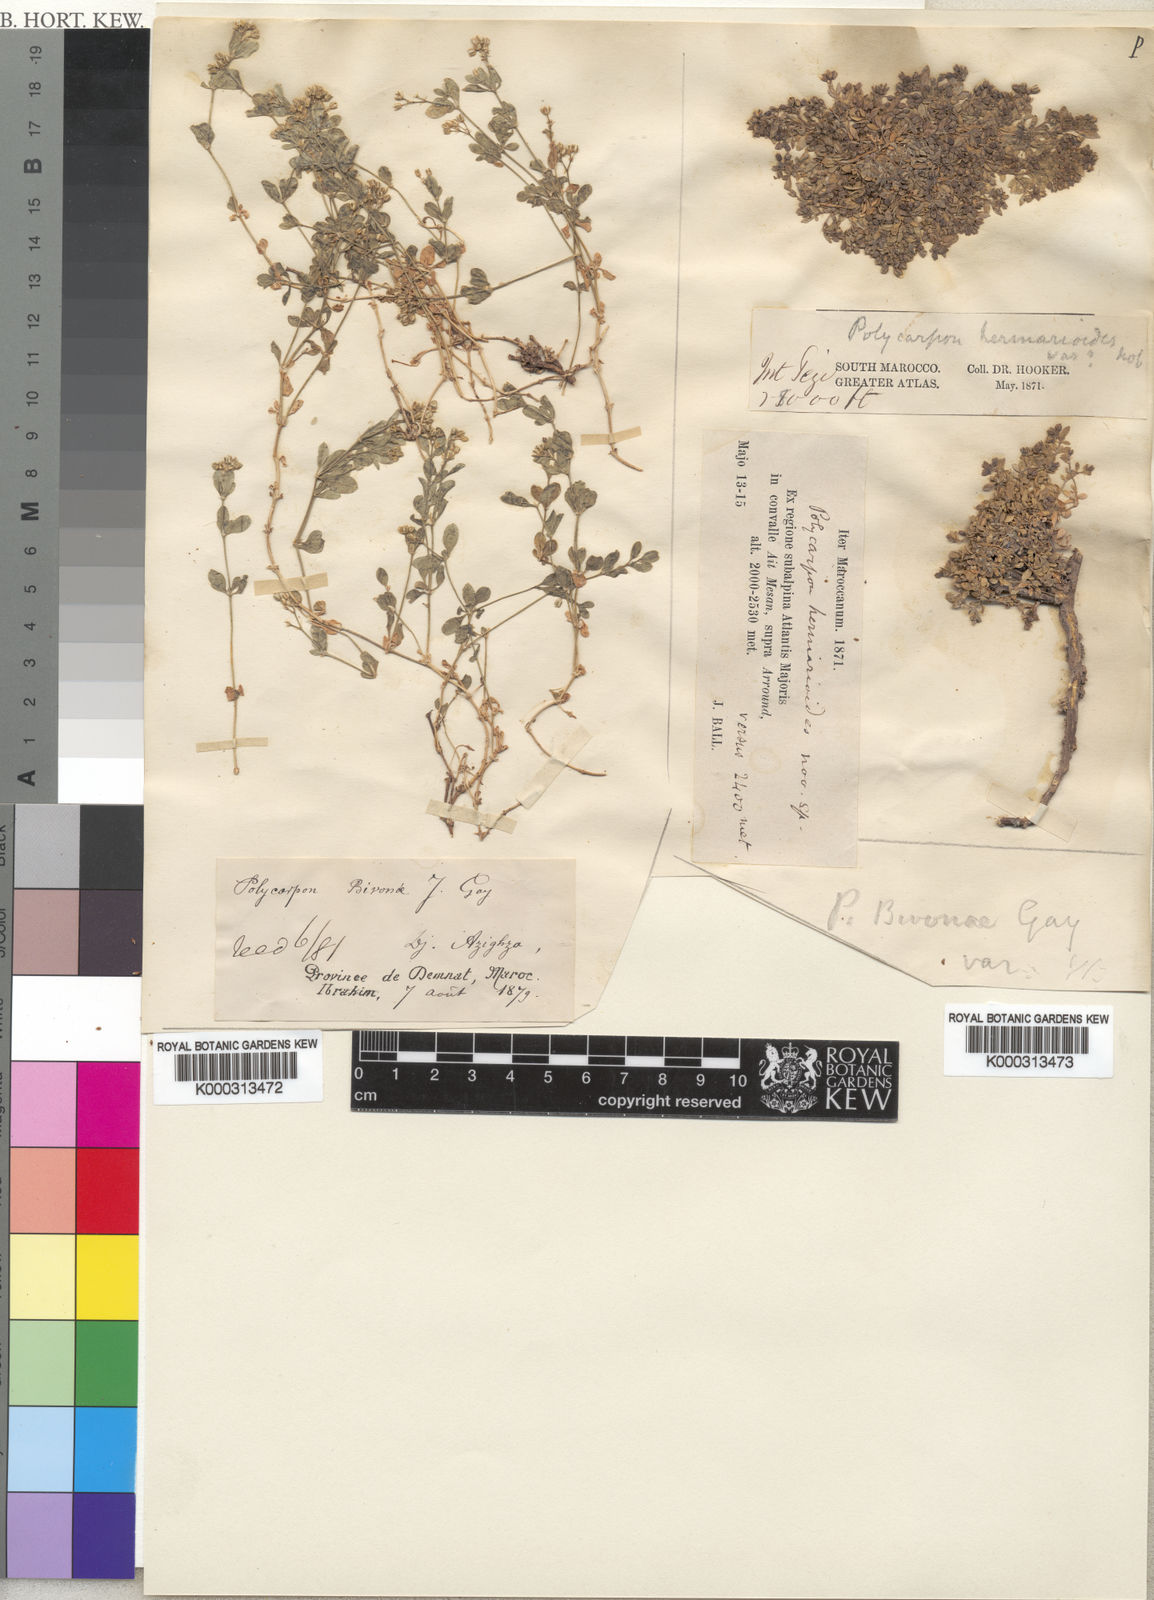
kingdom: Plantae
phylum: Tracheophyta
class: Magnoliopsida
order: Caryophyllales
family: Caryophyllaceae
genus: Polycarpon
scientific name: Polycarpon
